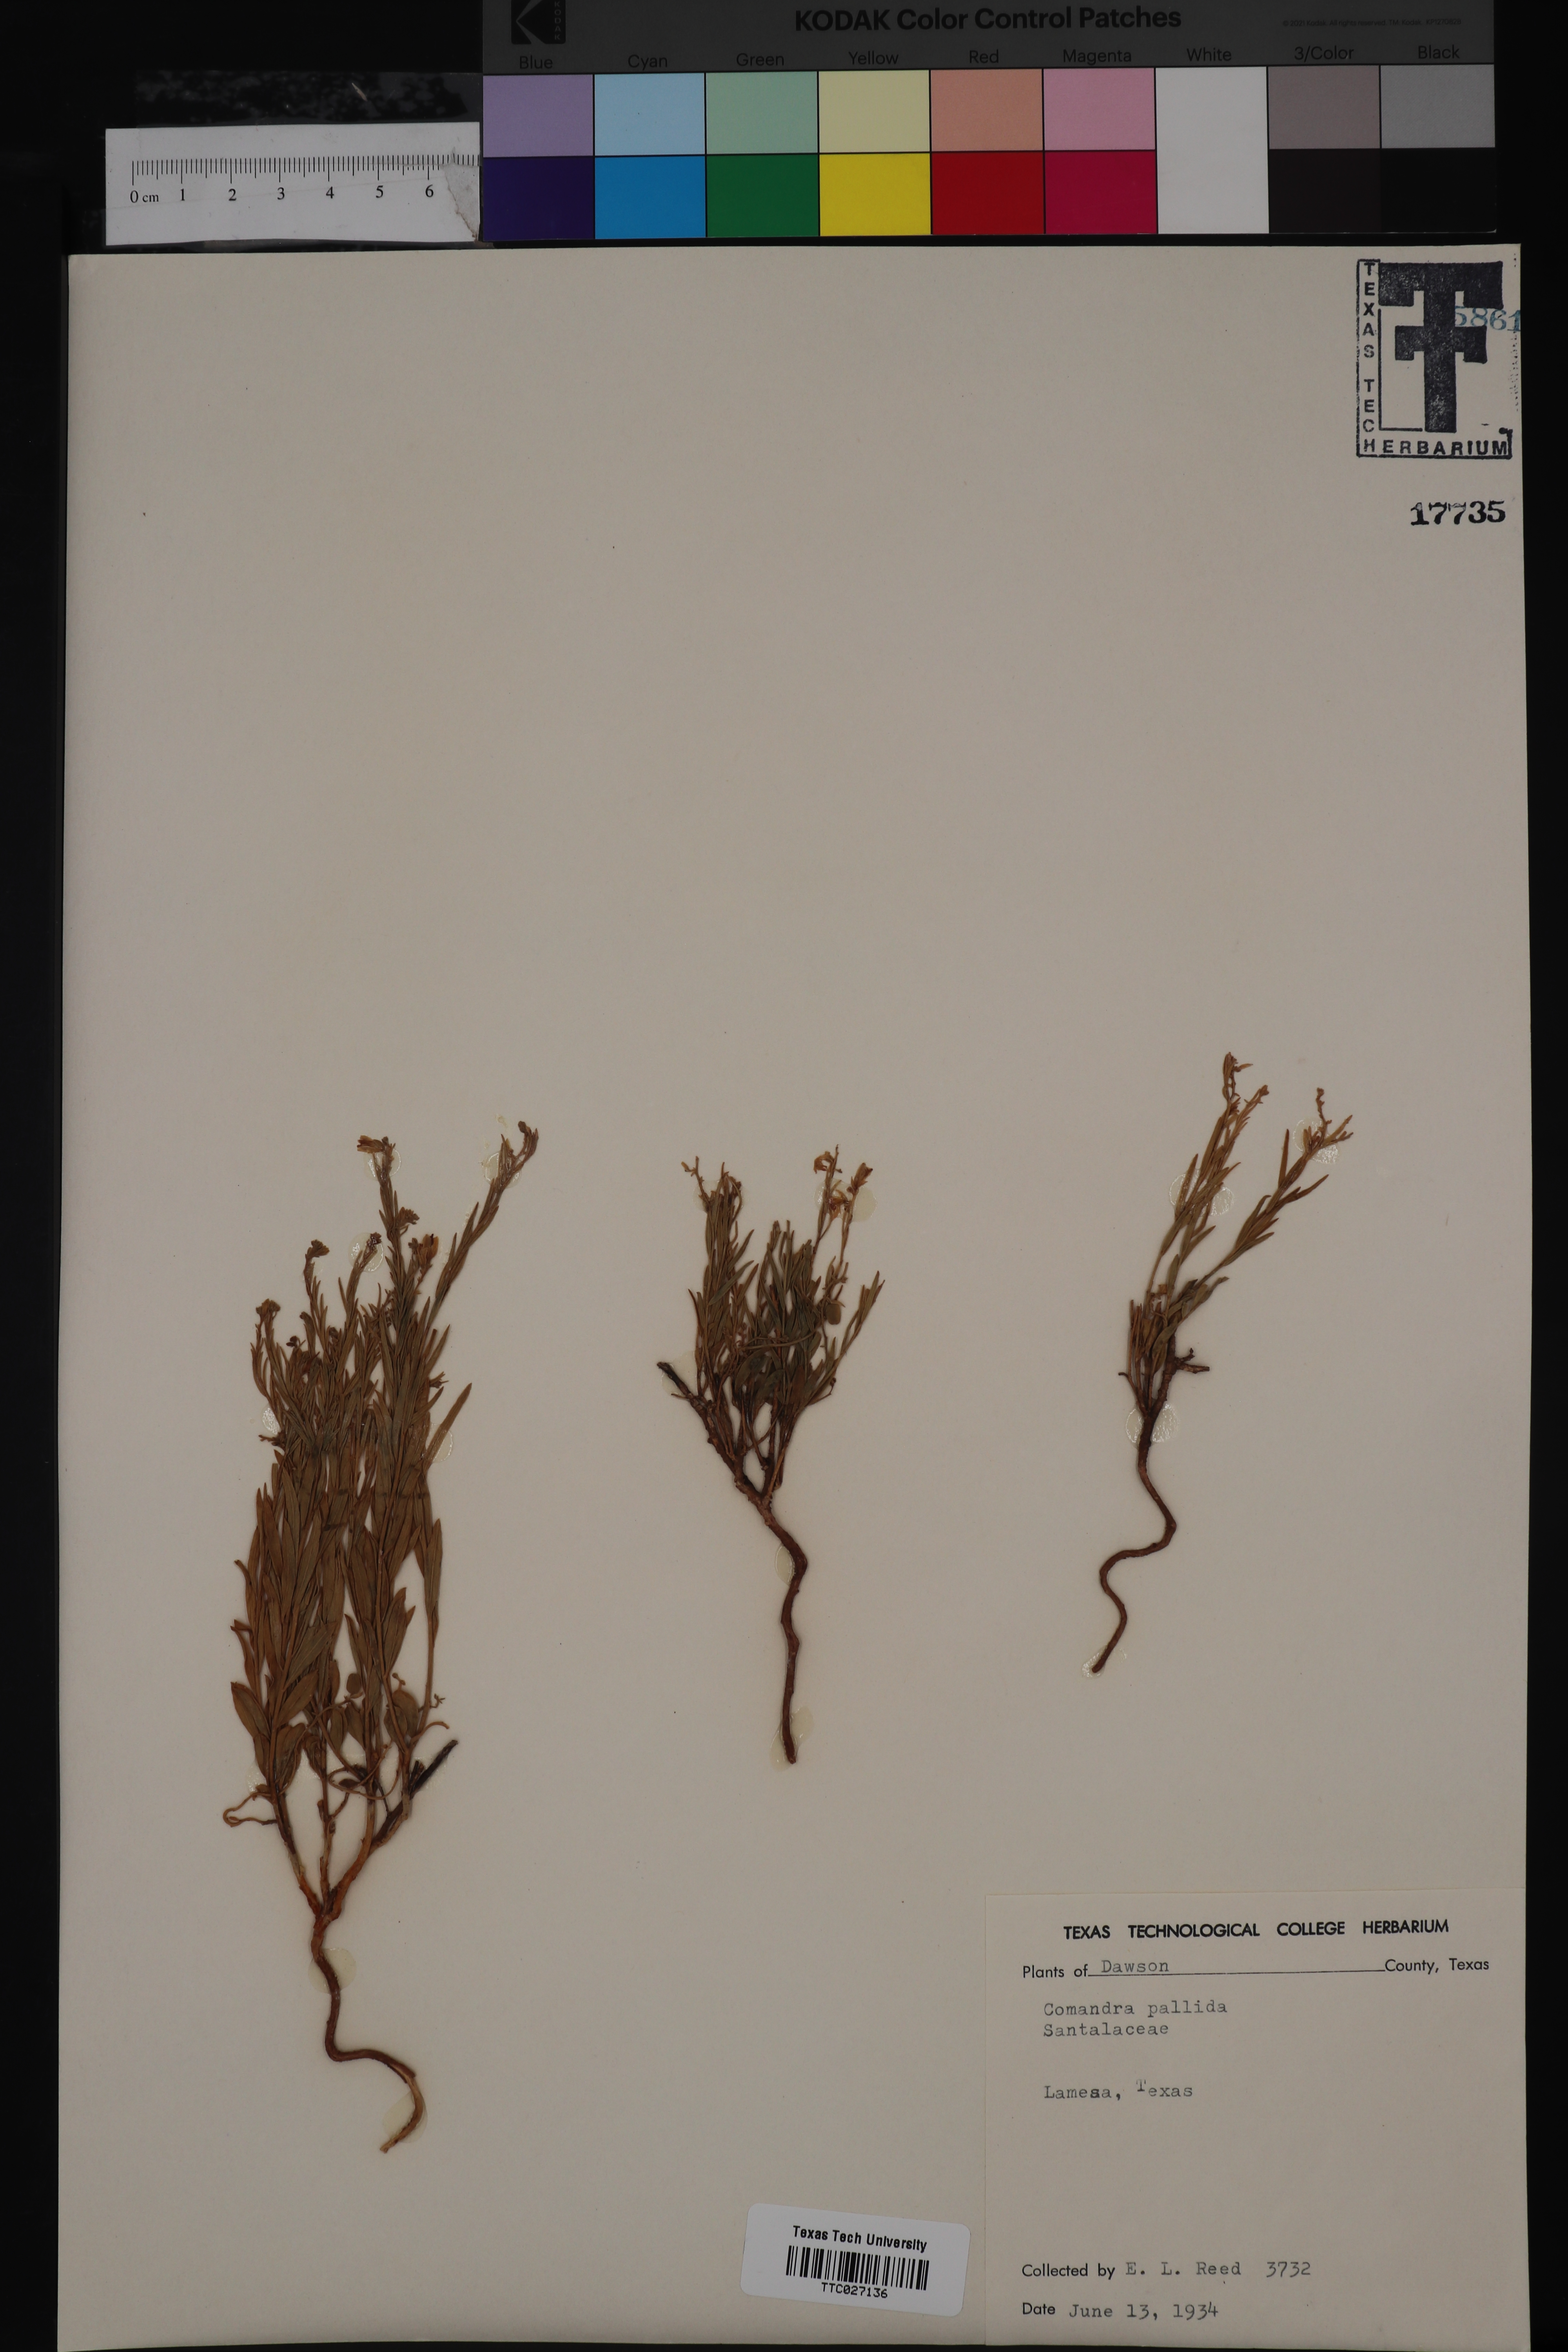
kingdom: Plantae
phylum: Tracheophyta
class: Magnoliopsida
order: Santalales
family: Comandraceae
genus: Comandra
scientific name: Comandra umbellata
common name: Bastard toadflax
